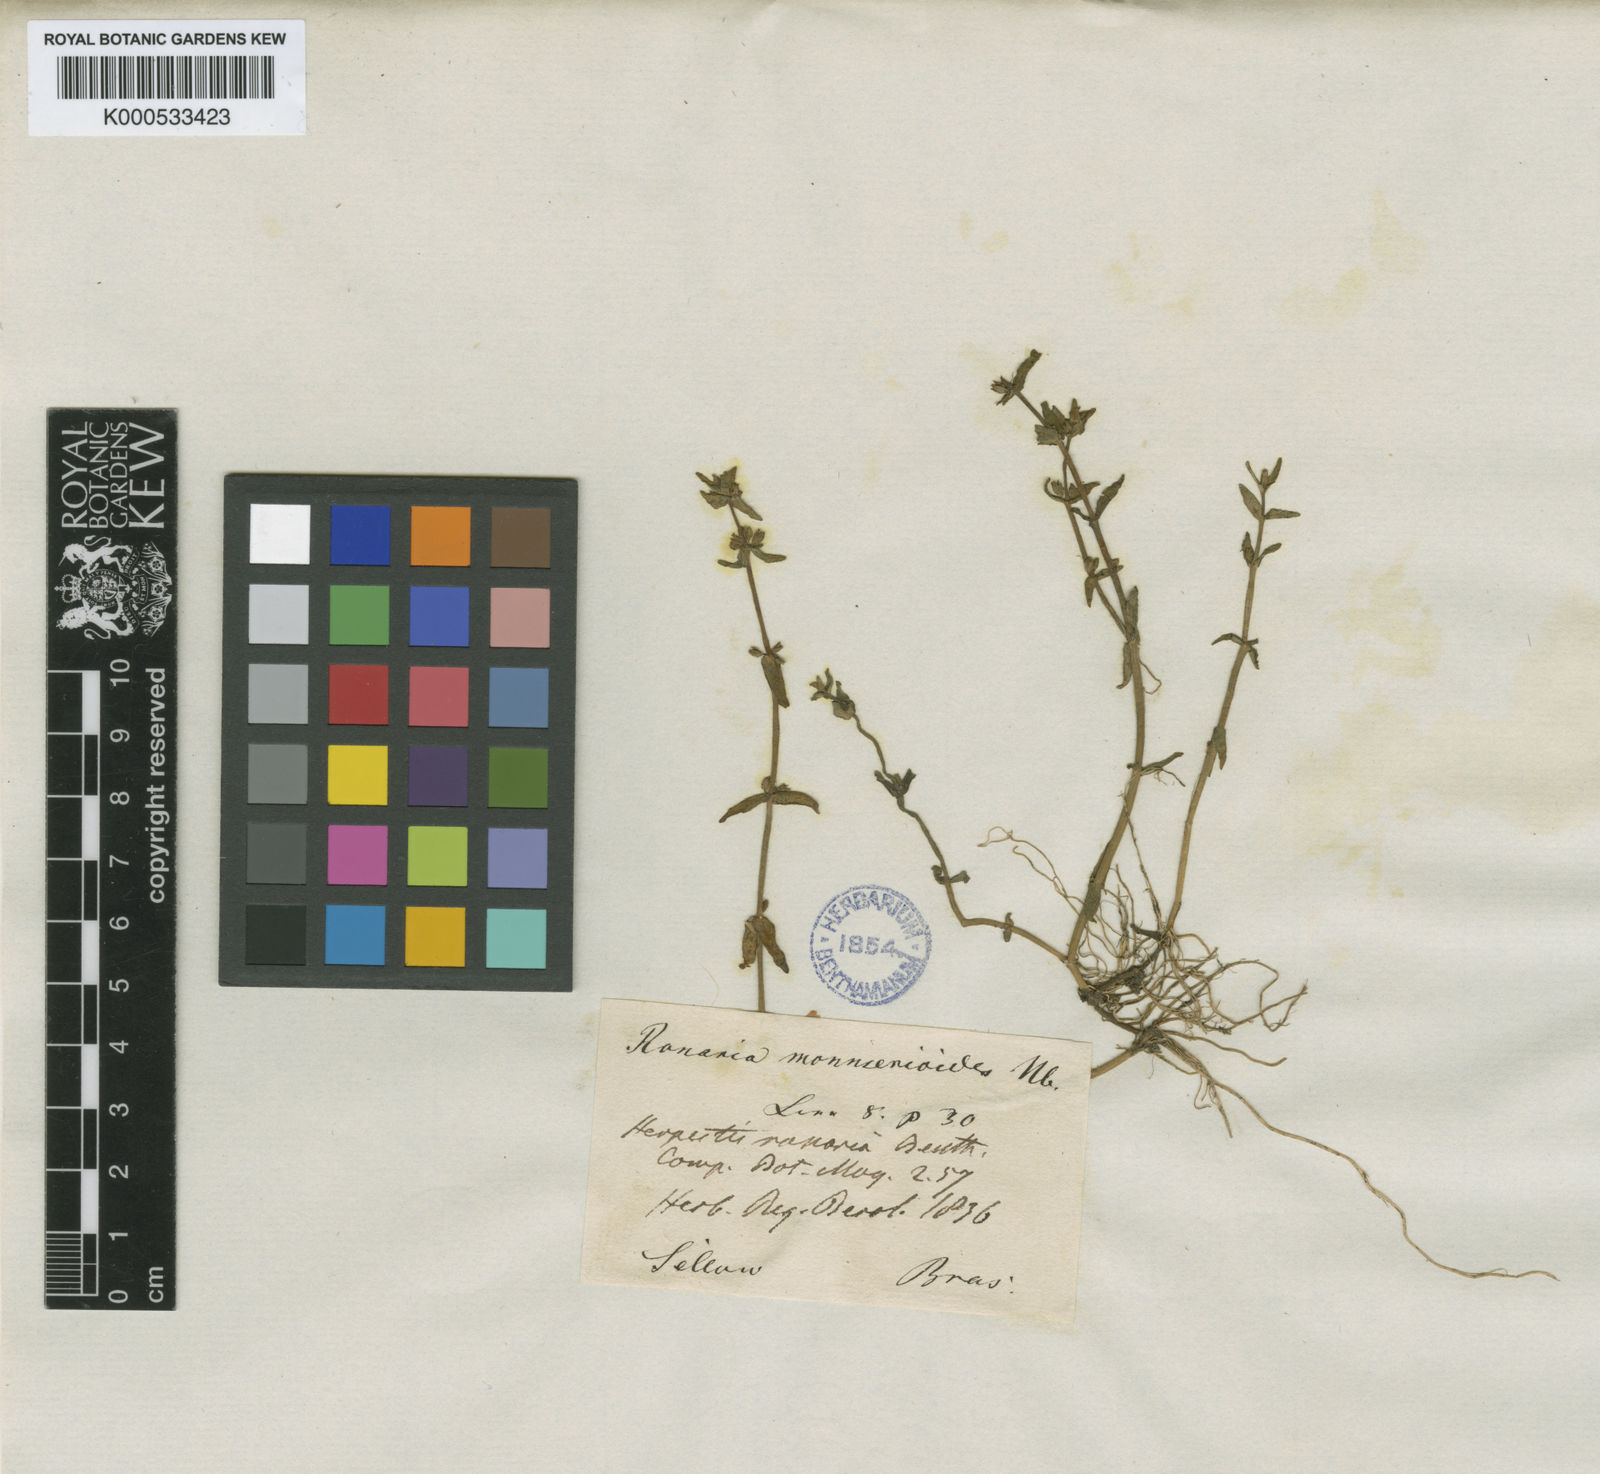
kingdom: Plantae
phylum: Tracheophyta
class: Magnoliopsida
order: Lamiales
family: Plantaginaceae
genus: Bacopa
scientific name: Bacopa monnierioides
